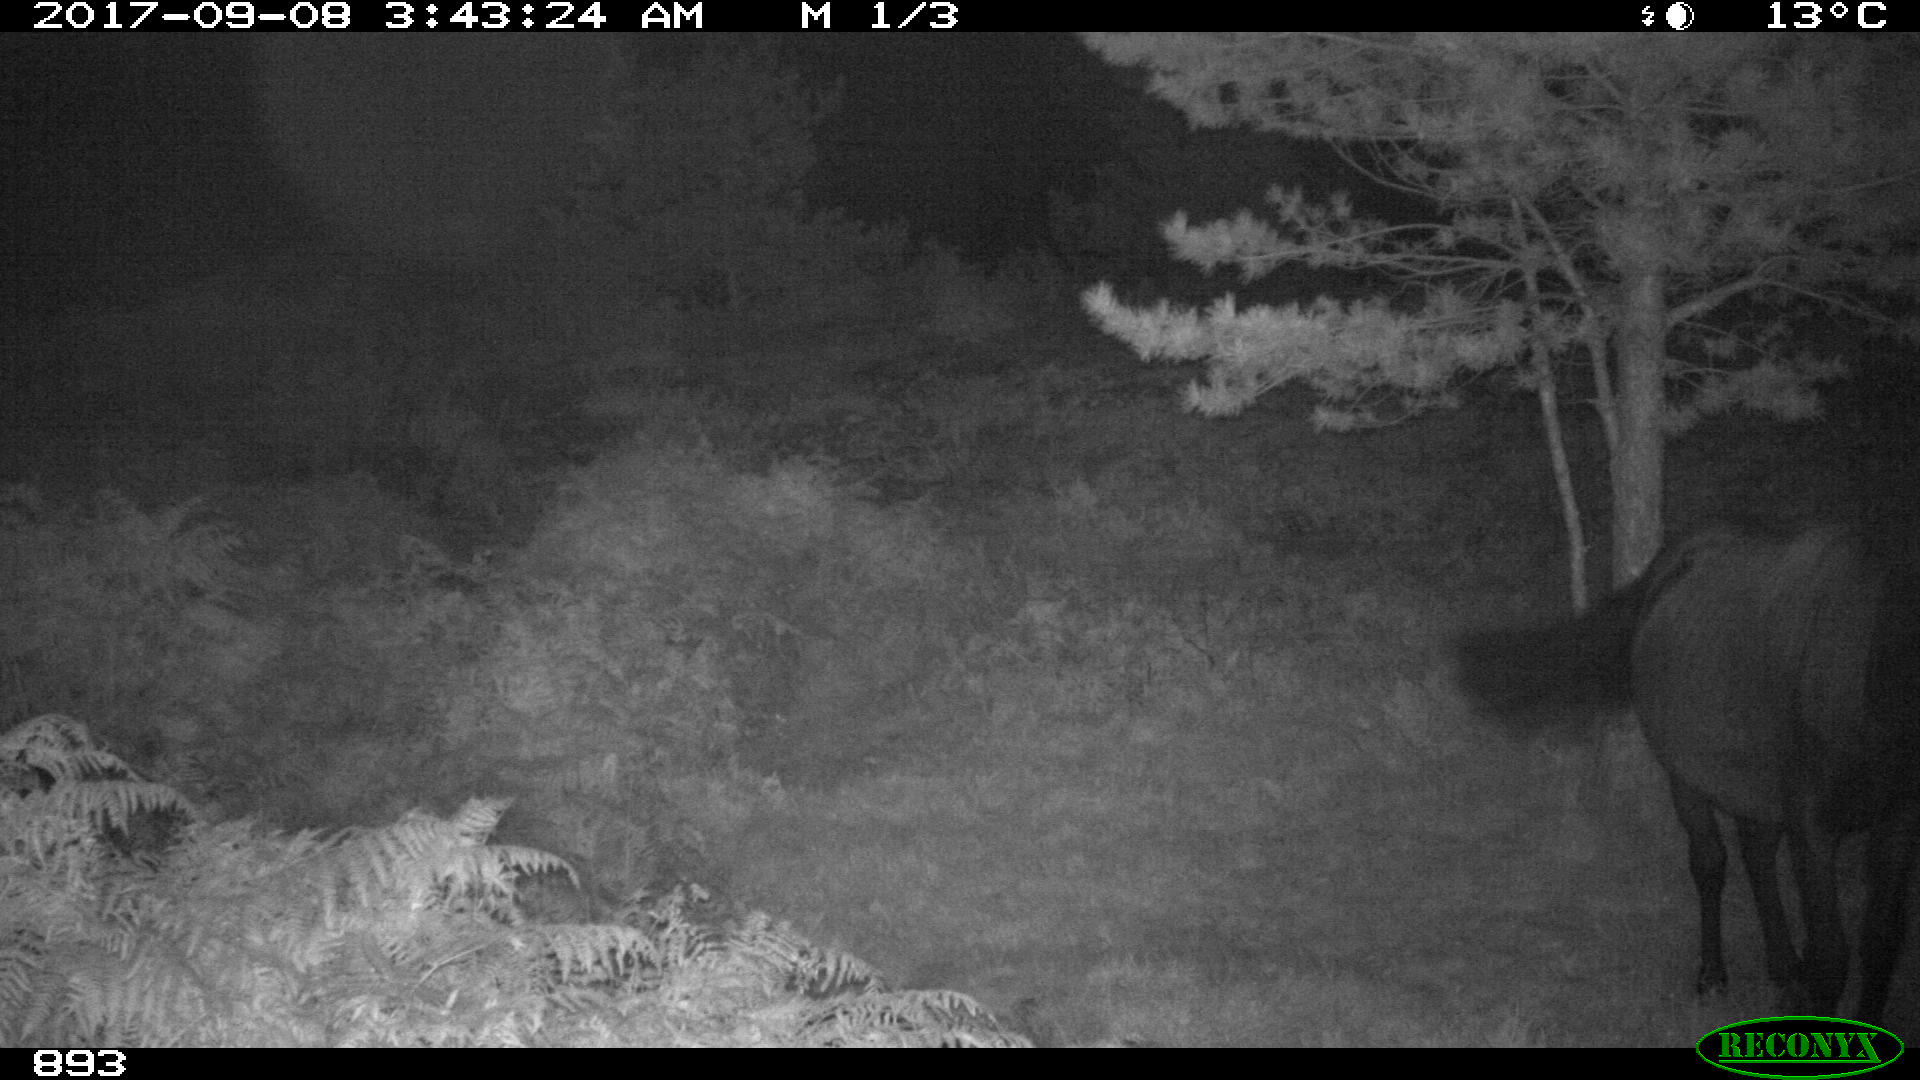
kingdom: Animalia
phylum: Chordata
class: Mammalia
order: Perissodactyla
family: Equidae
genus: Equus
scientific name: Equus caballus
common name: Horse
